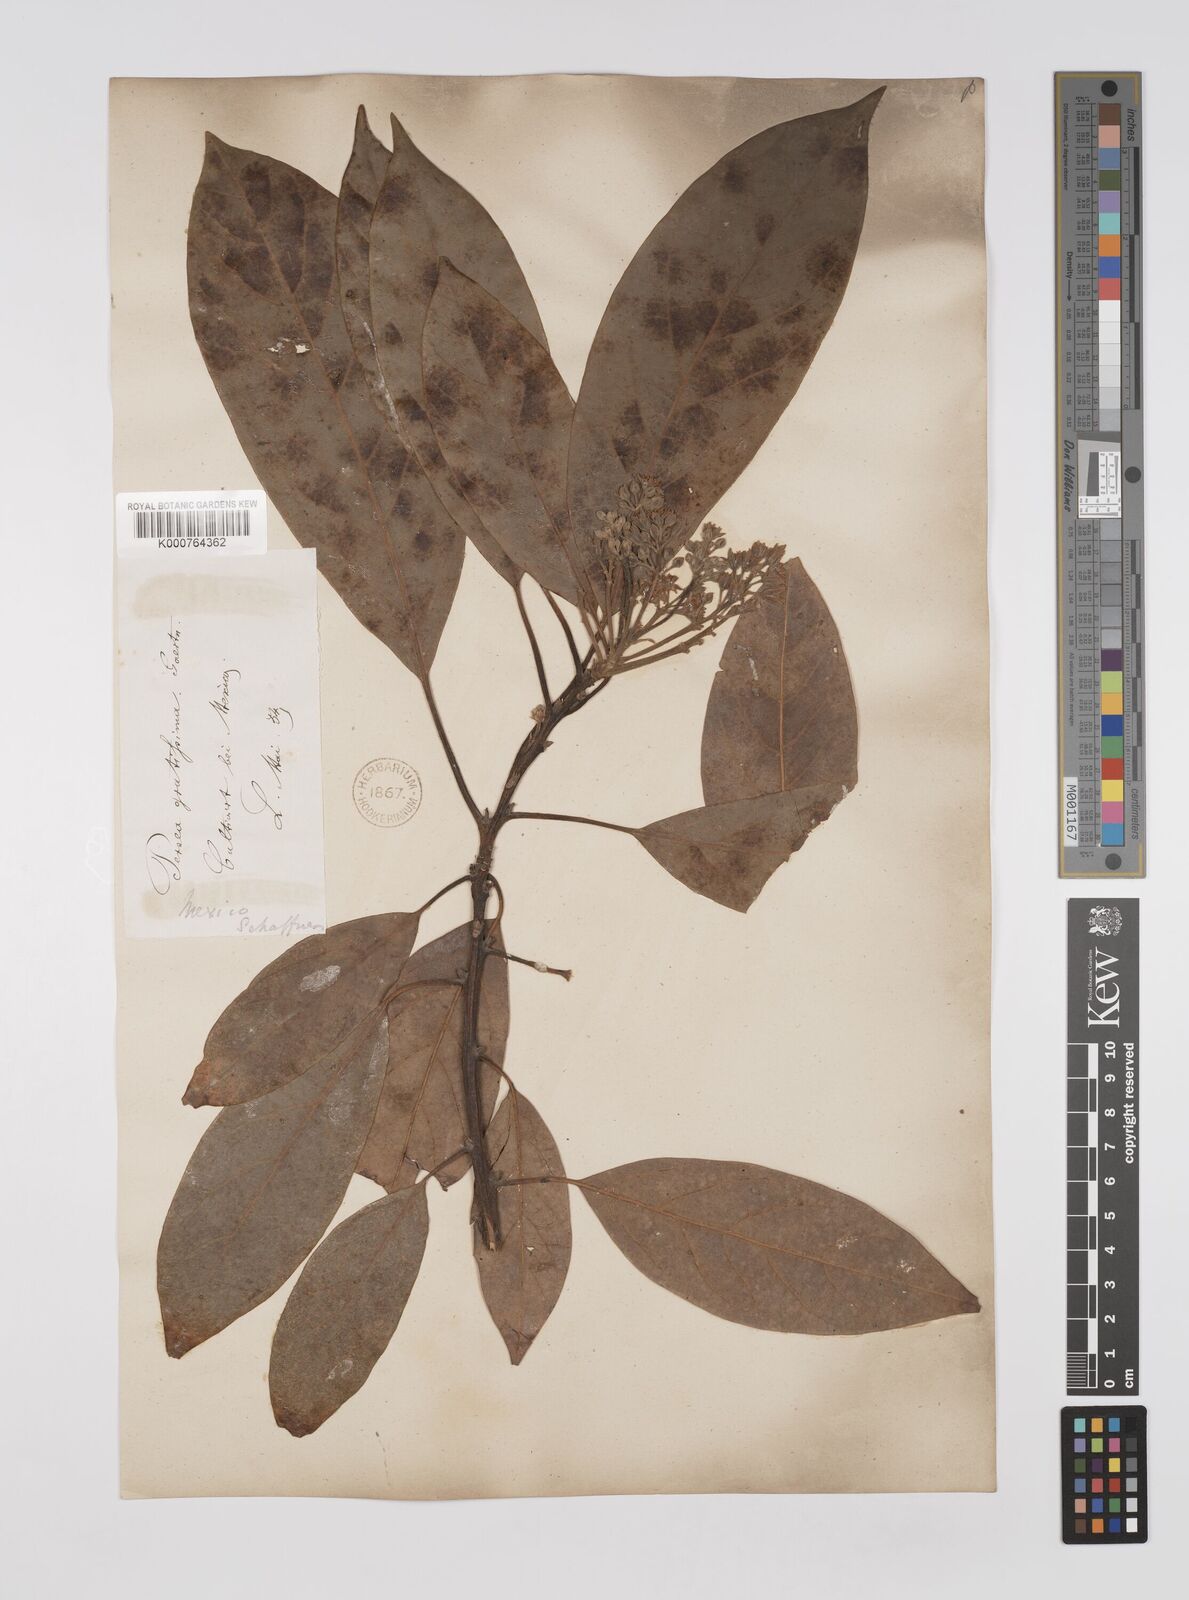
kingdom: Plantae
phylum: Tracheophyta
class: Magnoliopsida
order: Laurales
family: Lauraceae
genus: Persea
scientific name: Persea americana
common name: Avocado
